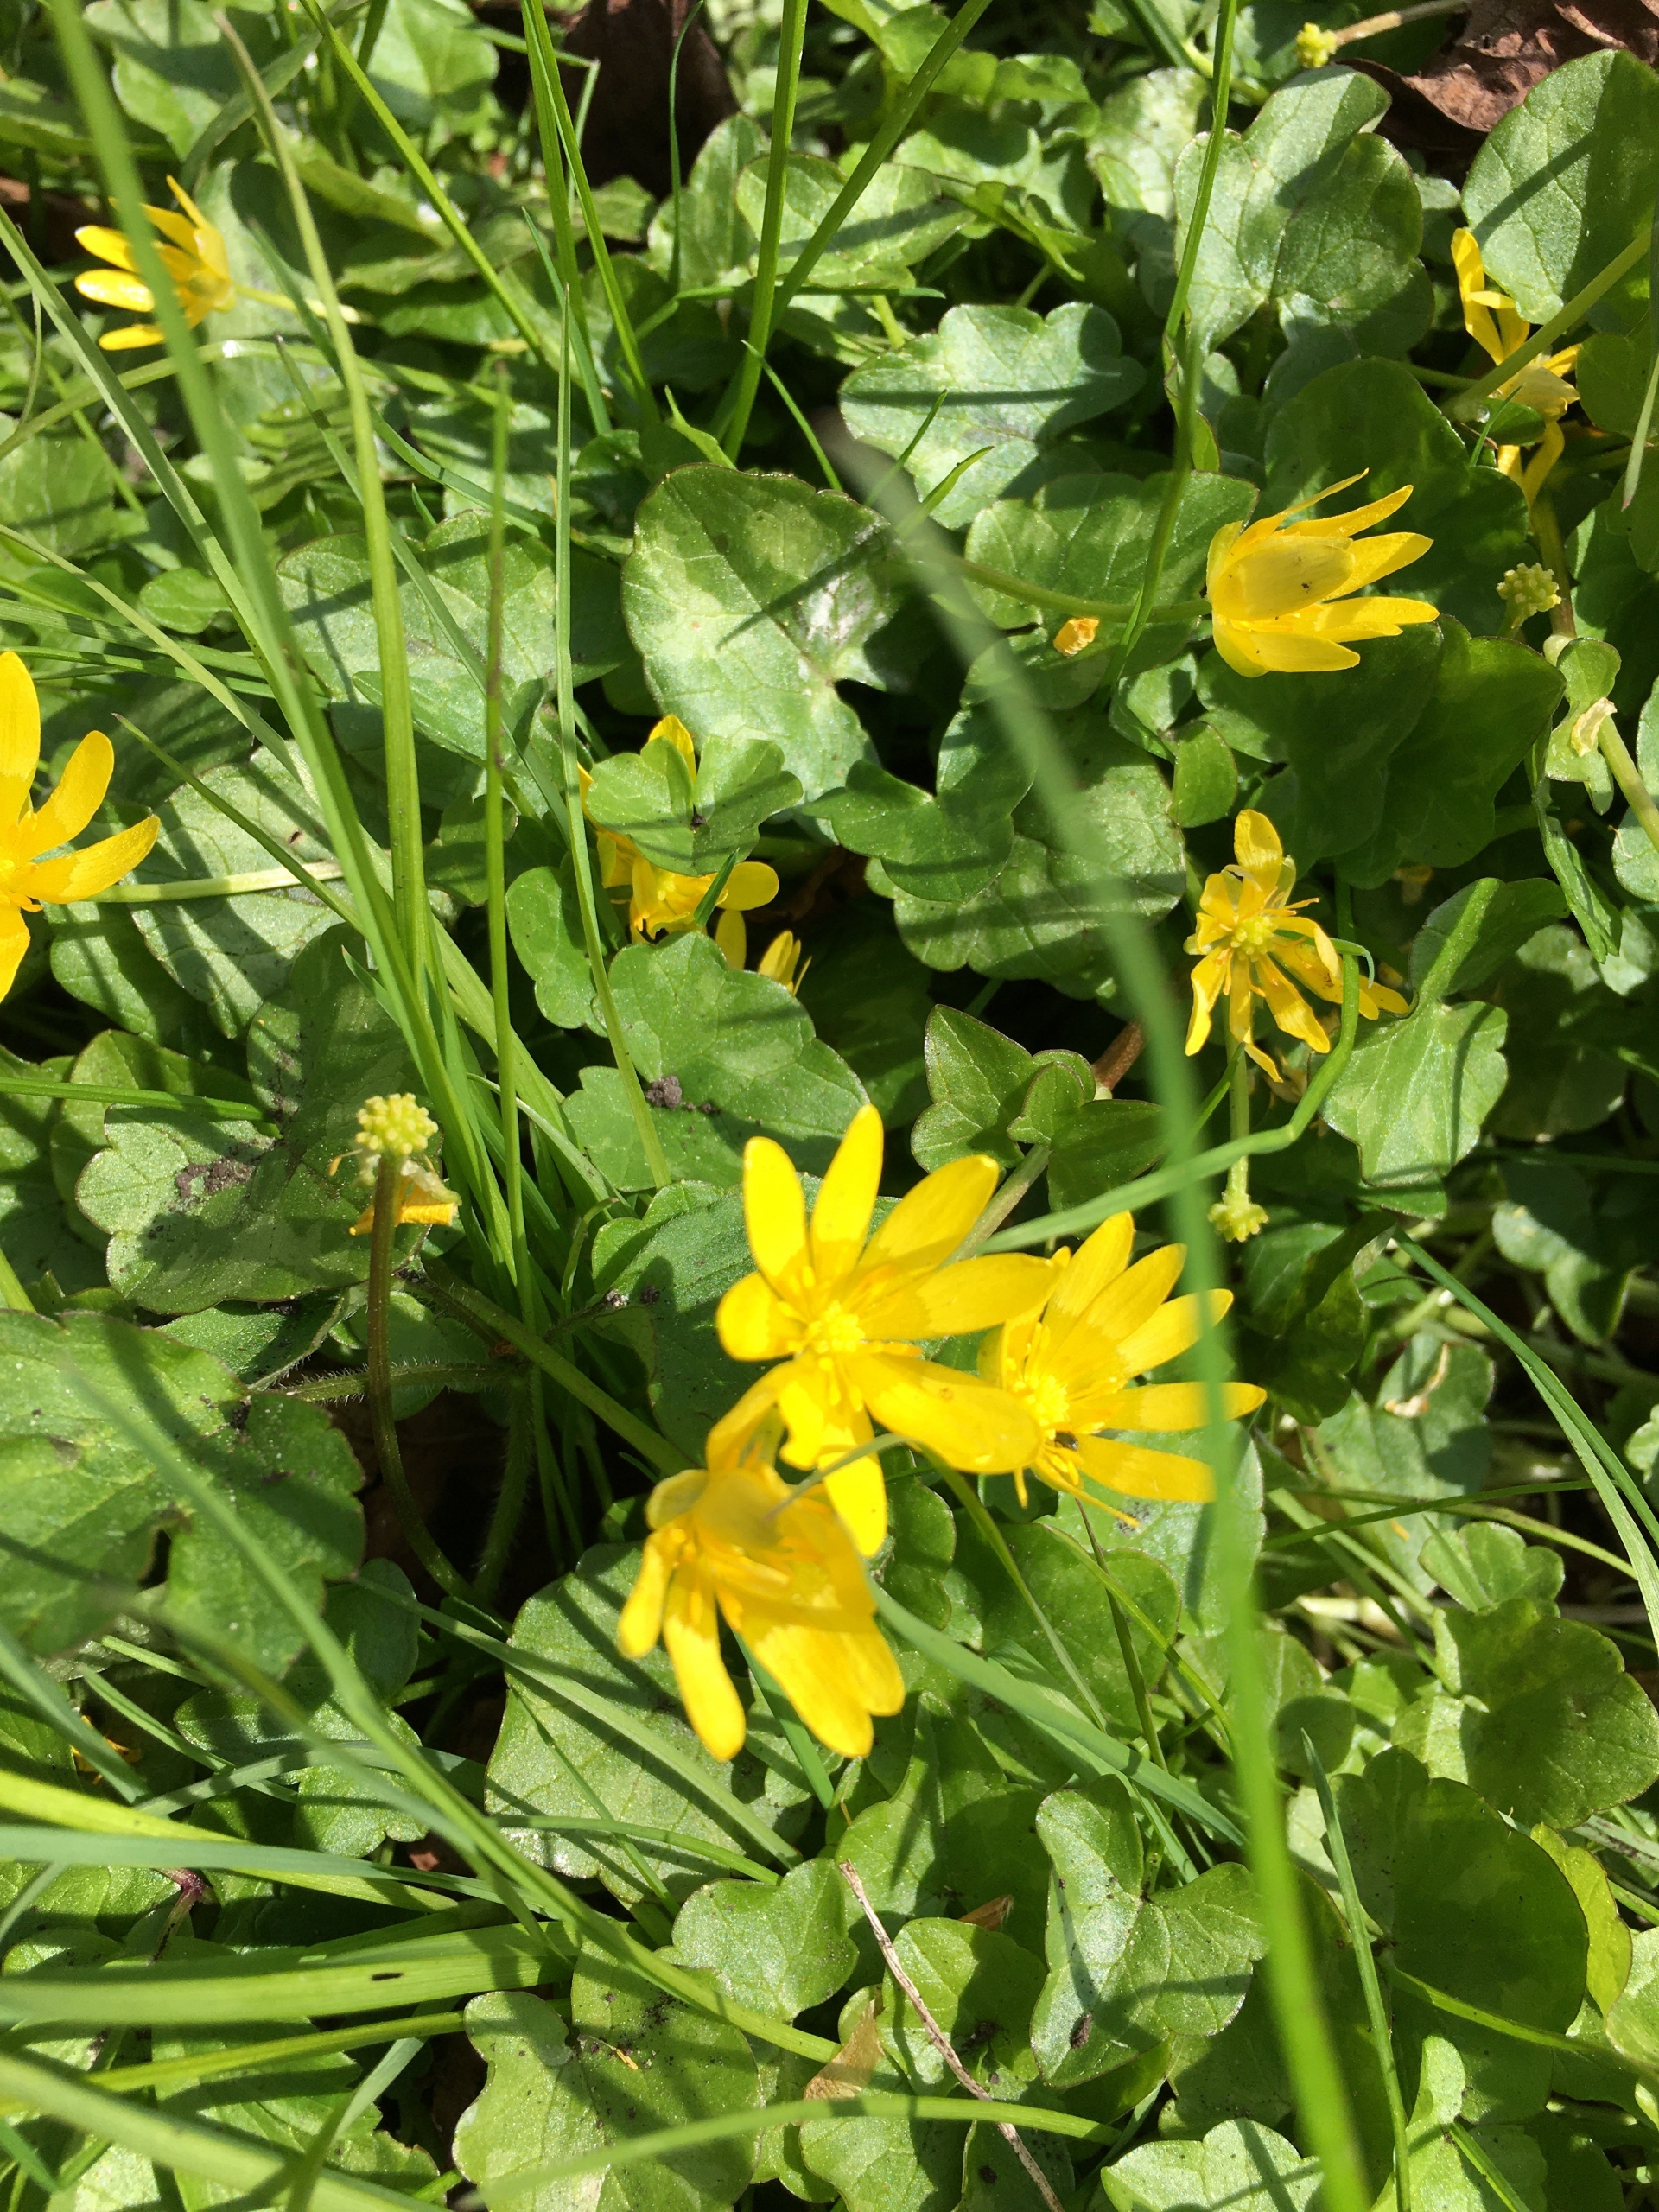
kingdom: Plantae
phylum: Tracheophyta
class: Magnoliopsida
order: Ranunculales
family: Ranunculaceae
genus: Ficaria
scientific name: Ficaria verna
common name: Vorterod
